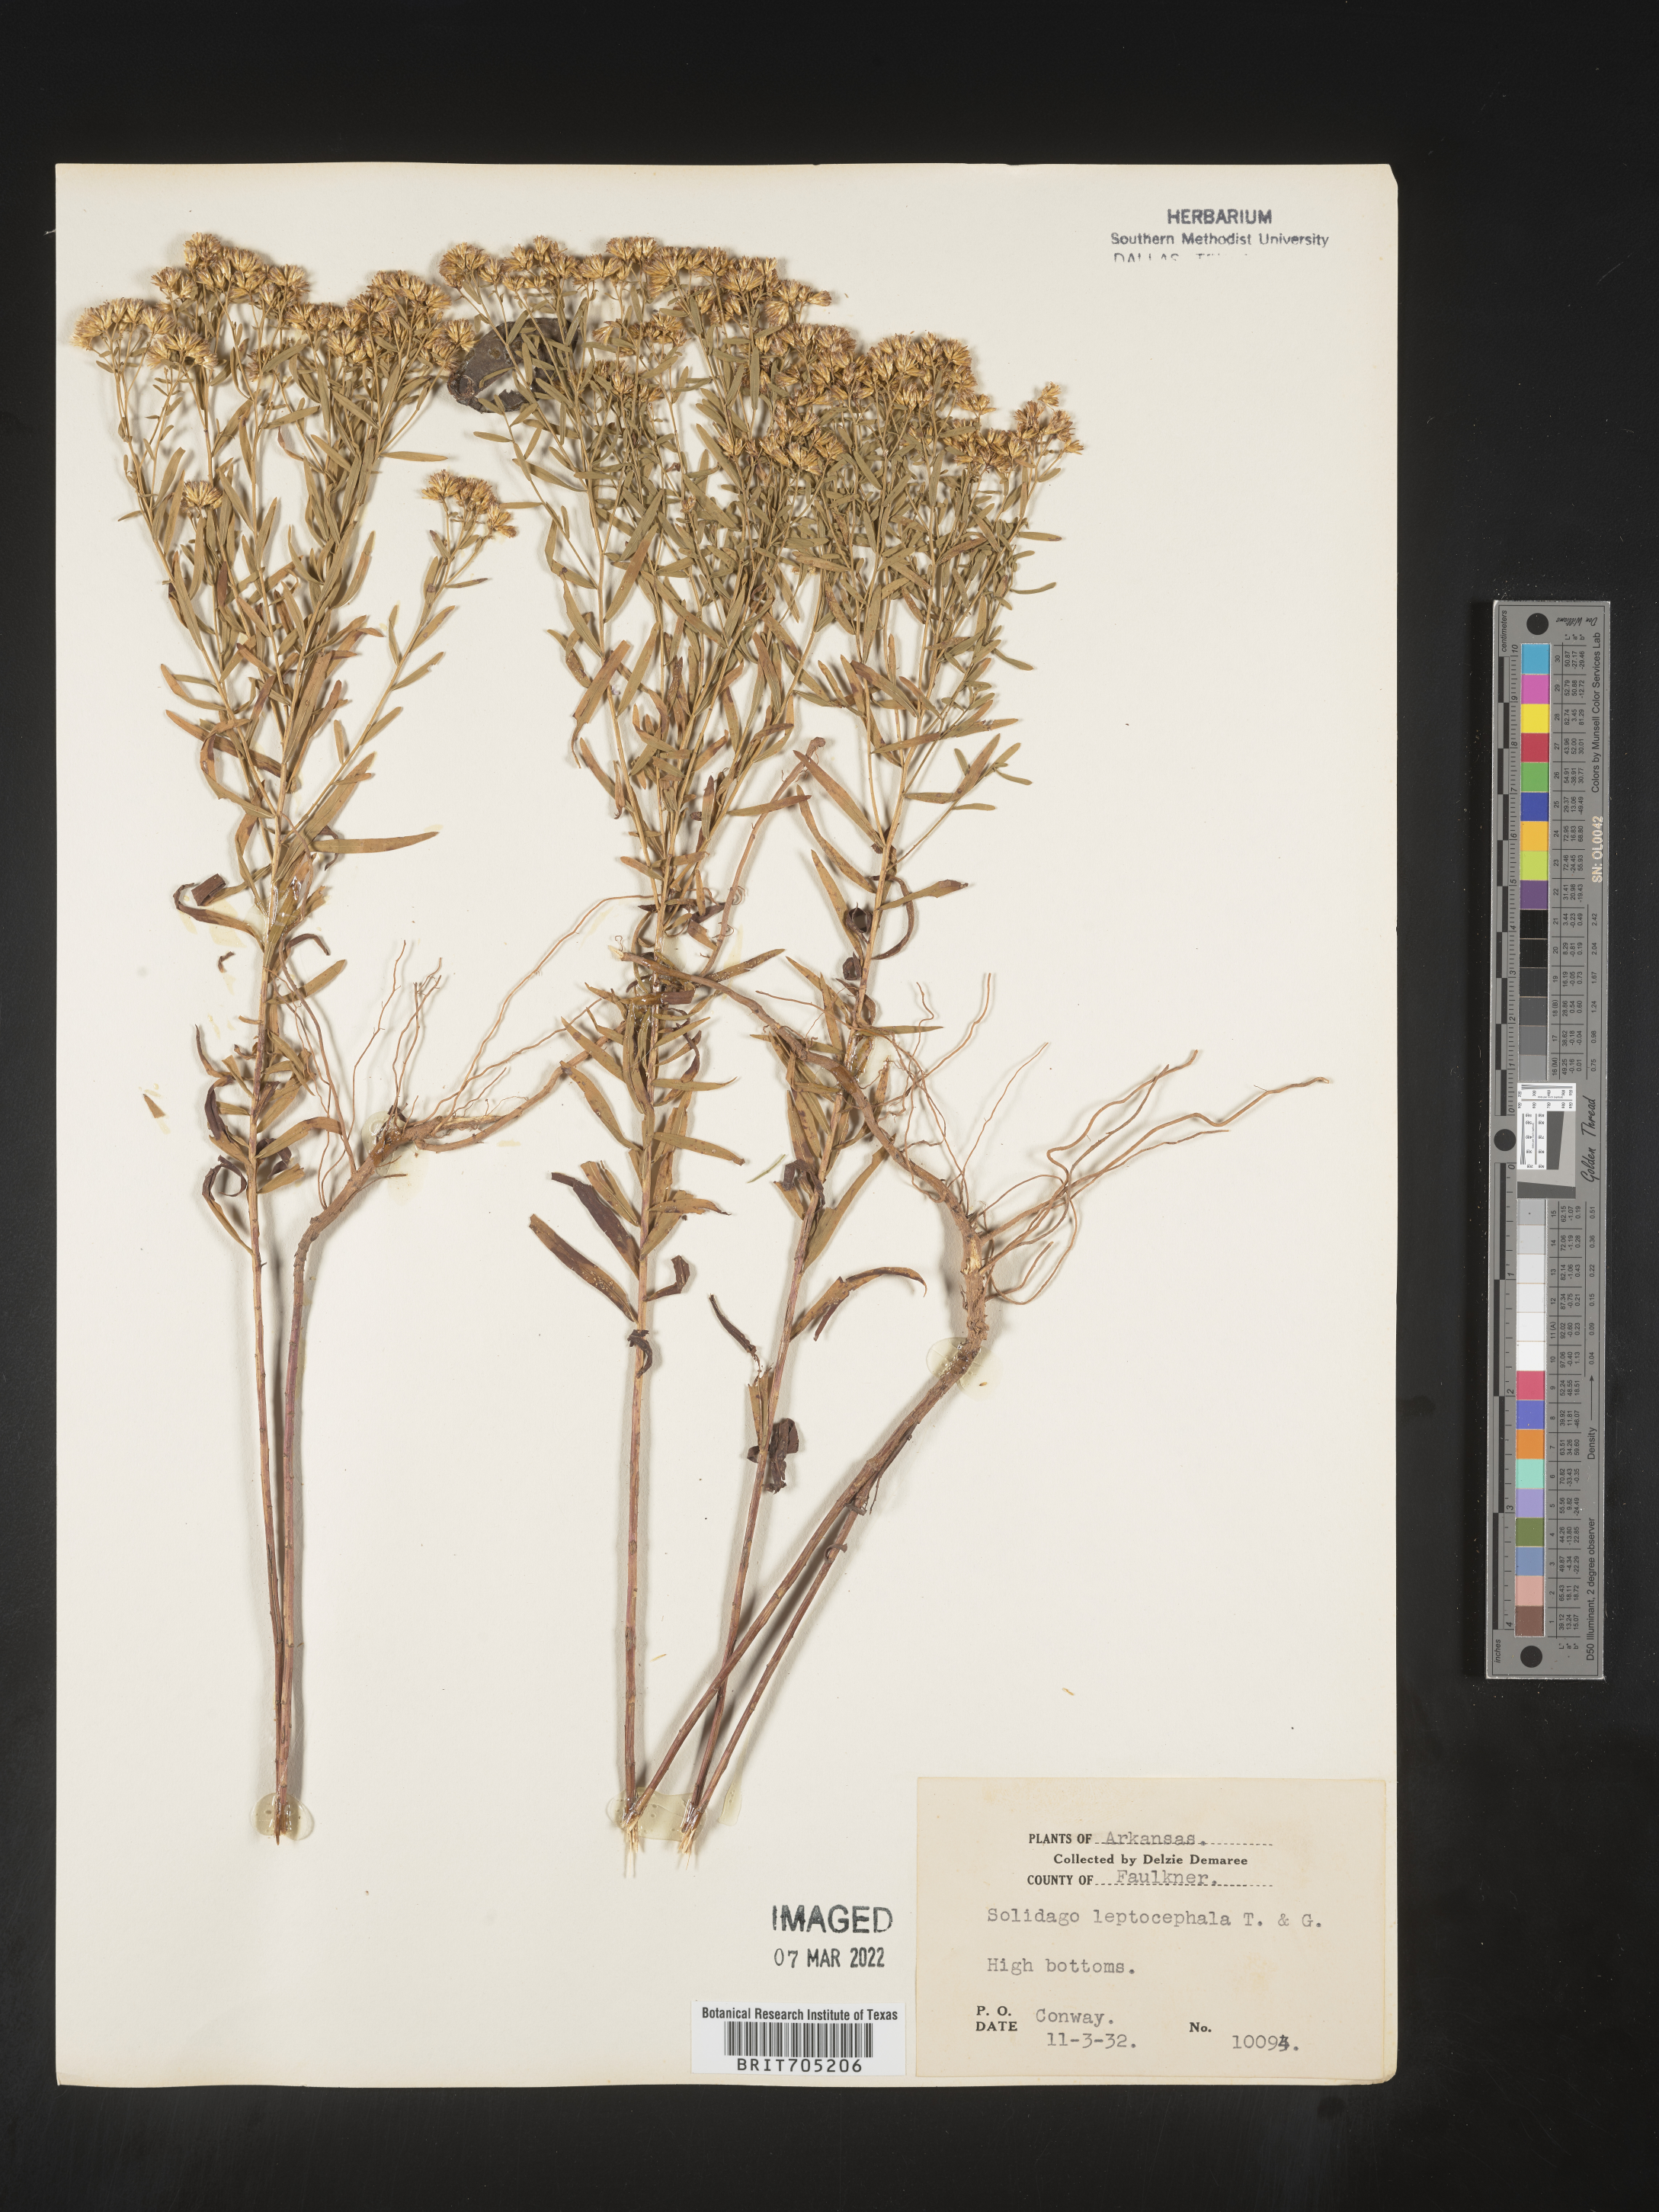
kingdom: Plantae
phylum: Tracheophyta
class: Magnoliopsida
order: Asterales
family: Asteraceae
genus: Euthamia
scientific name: Euthamia leptocephala
